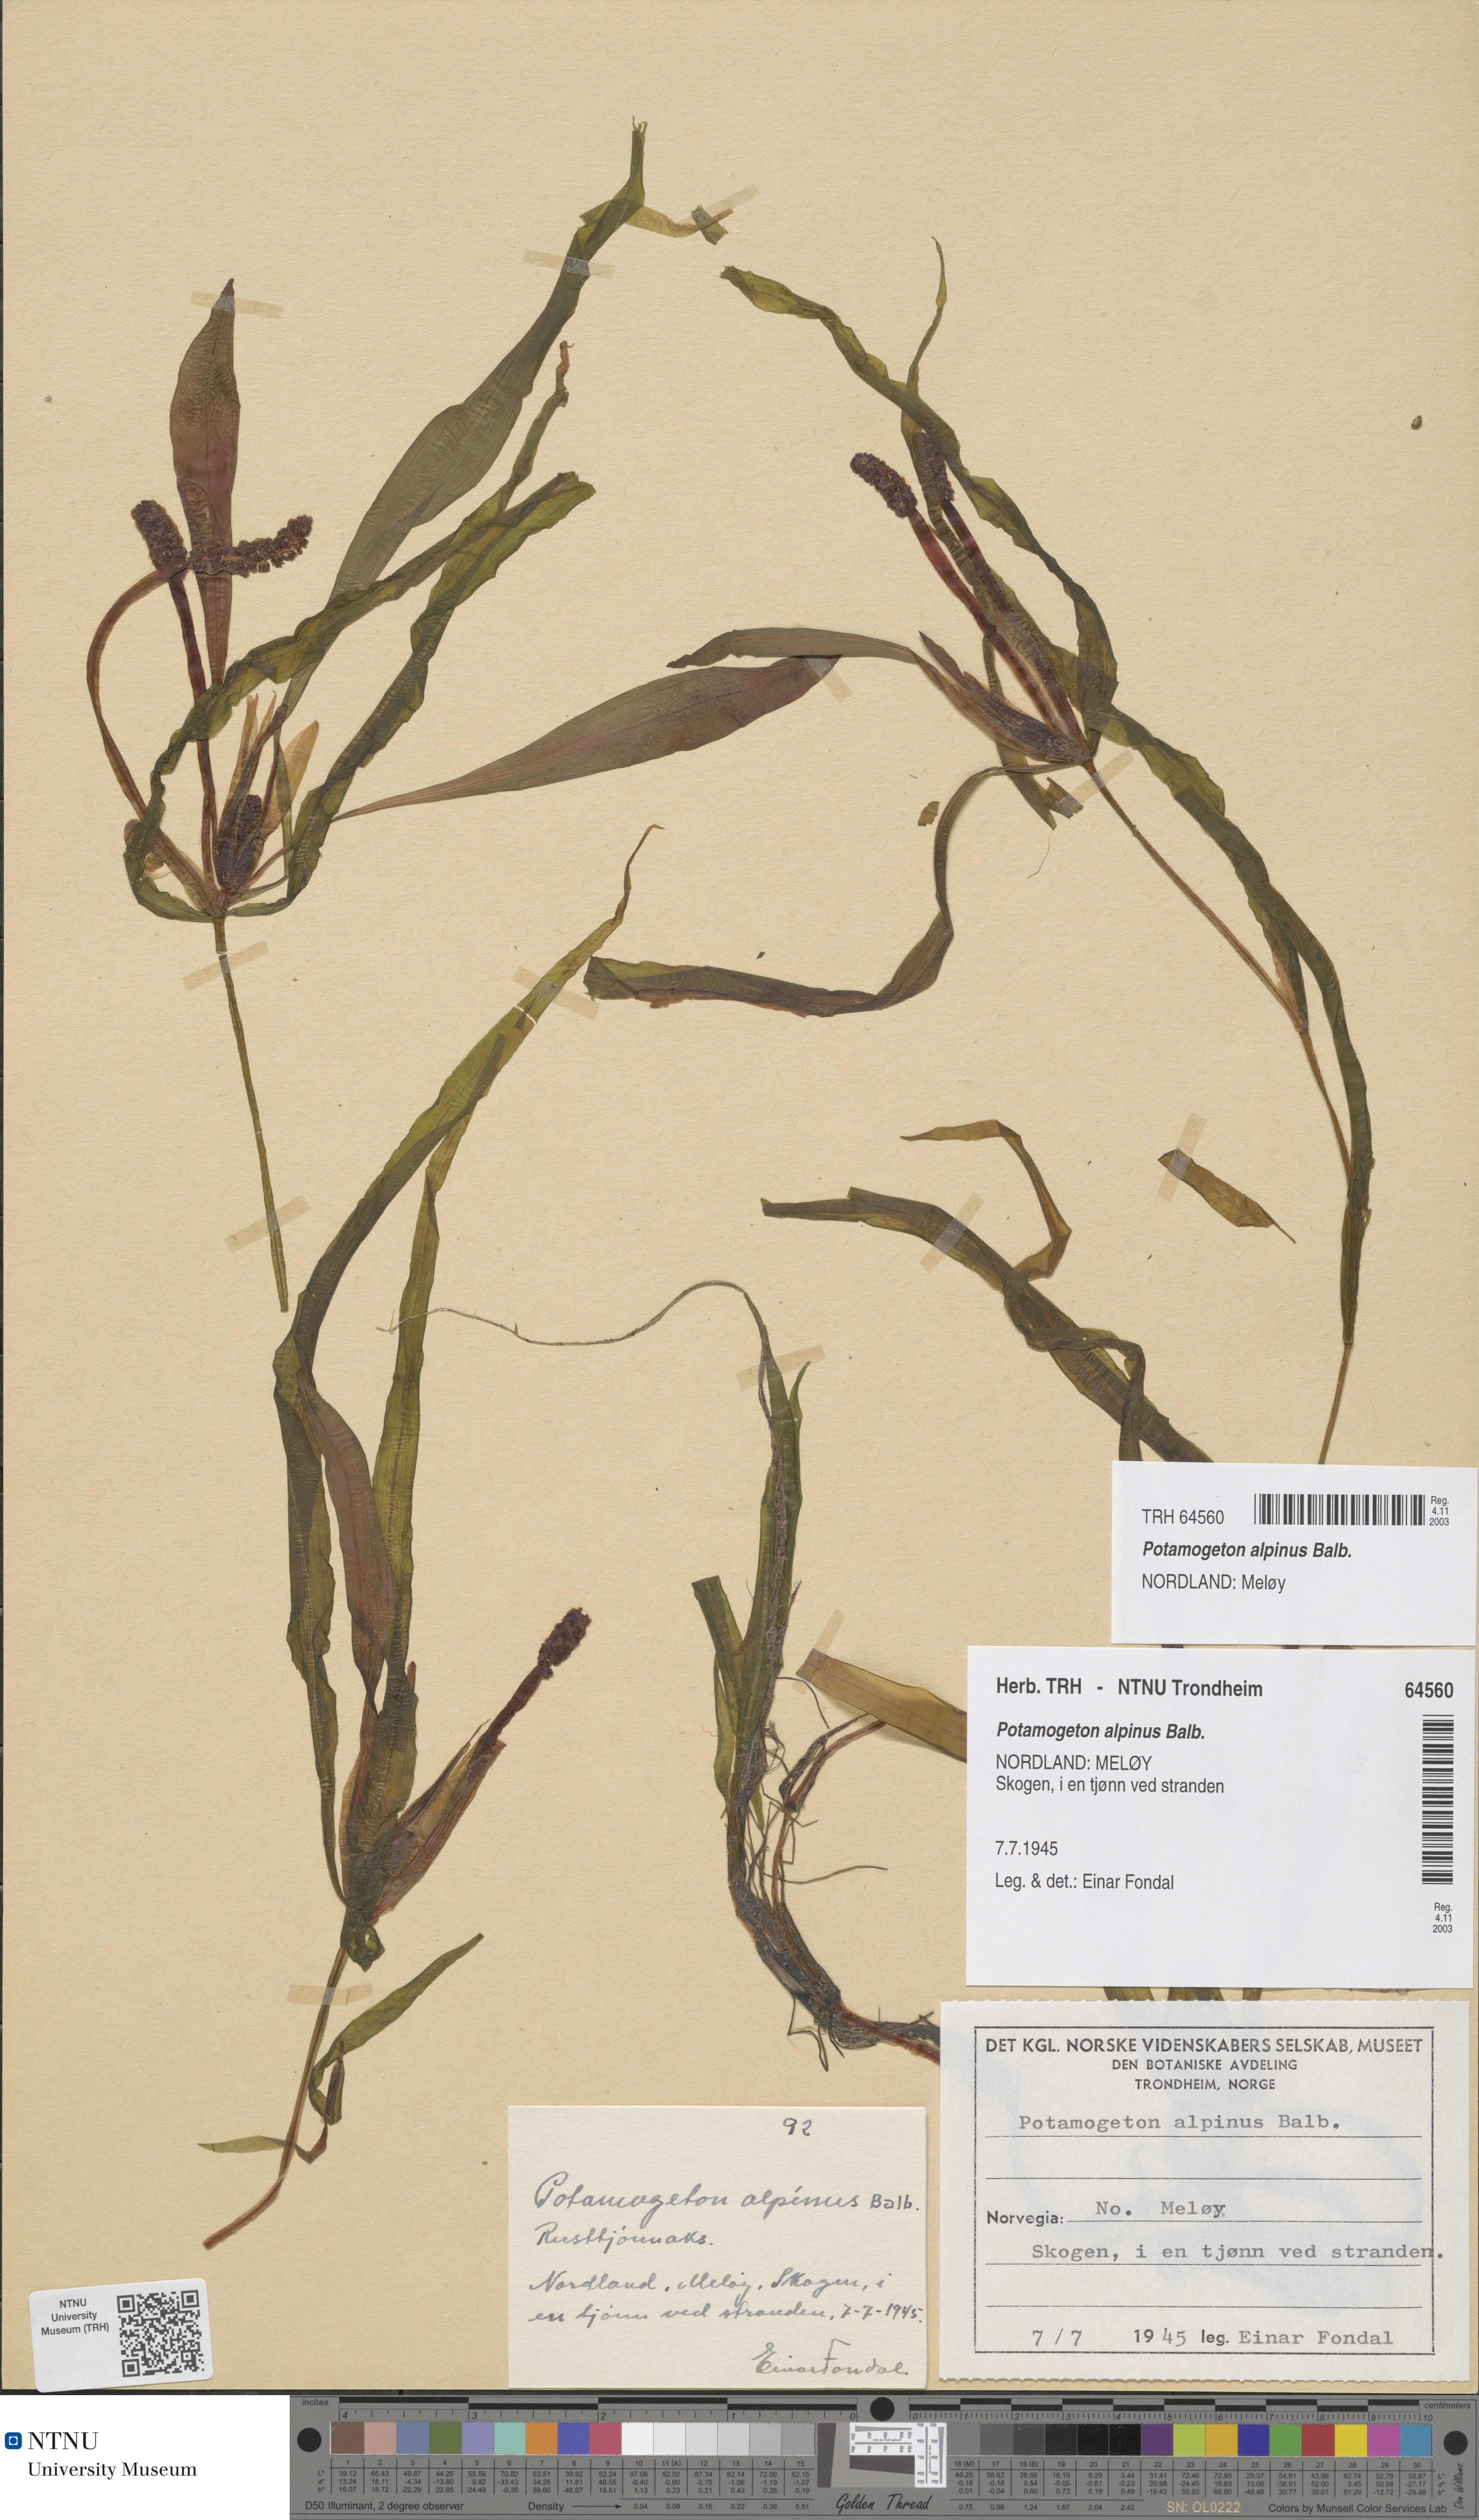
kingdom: Plantae
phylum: Tracheophyta
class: Liliopsida
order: Alismatales
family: Potamogetonaceae
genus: Potamogeton
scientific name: Potamogeton alpinus
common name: Red pondweed
